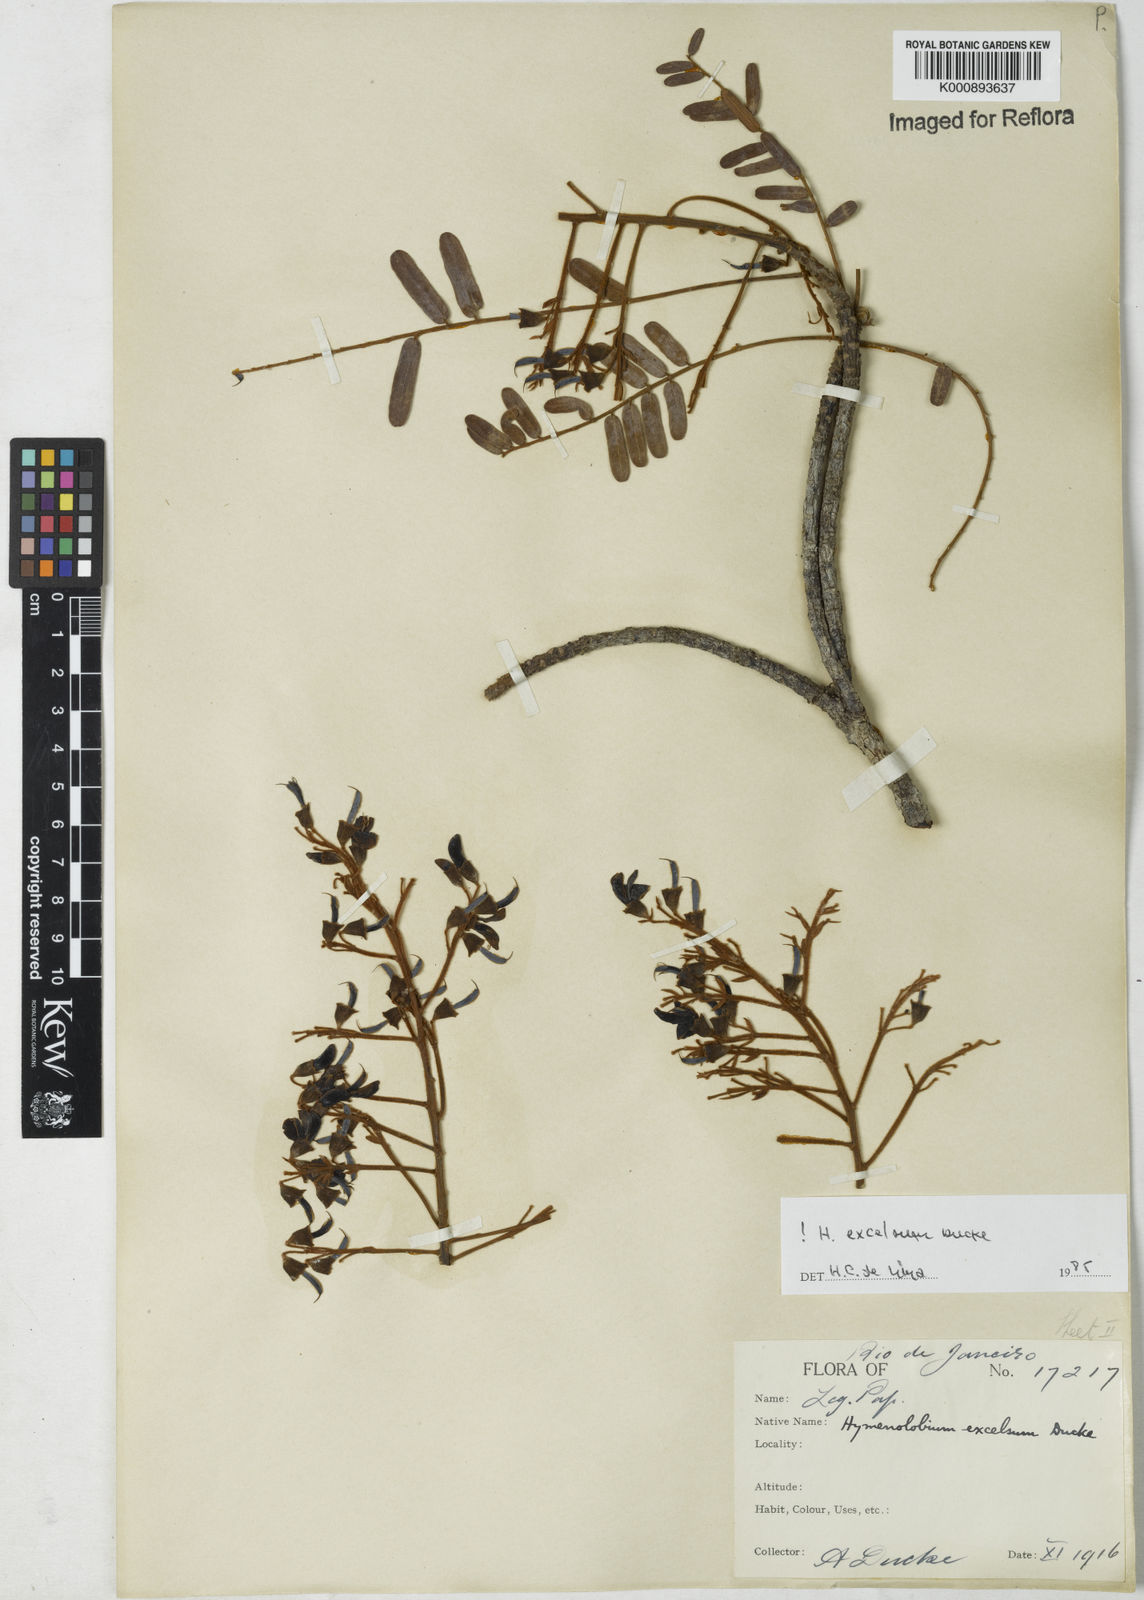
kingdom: Plantae
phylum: Tracheophyta
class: Magnoliopsida
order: Fabales
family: Fabaceae
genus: Hymenolobium
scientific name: Hymenolobium excelsum
